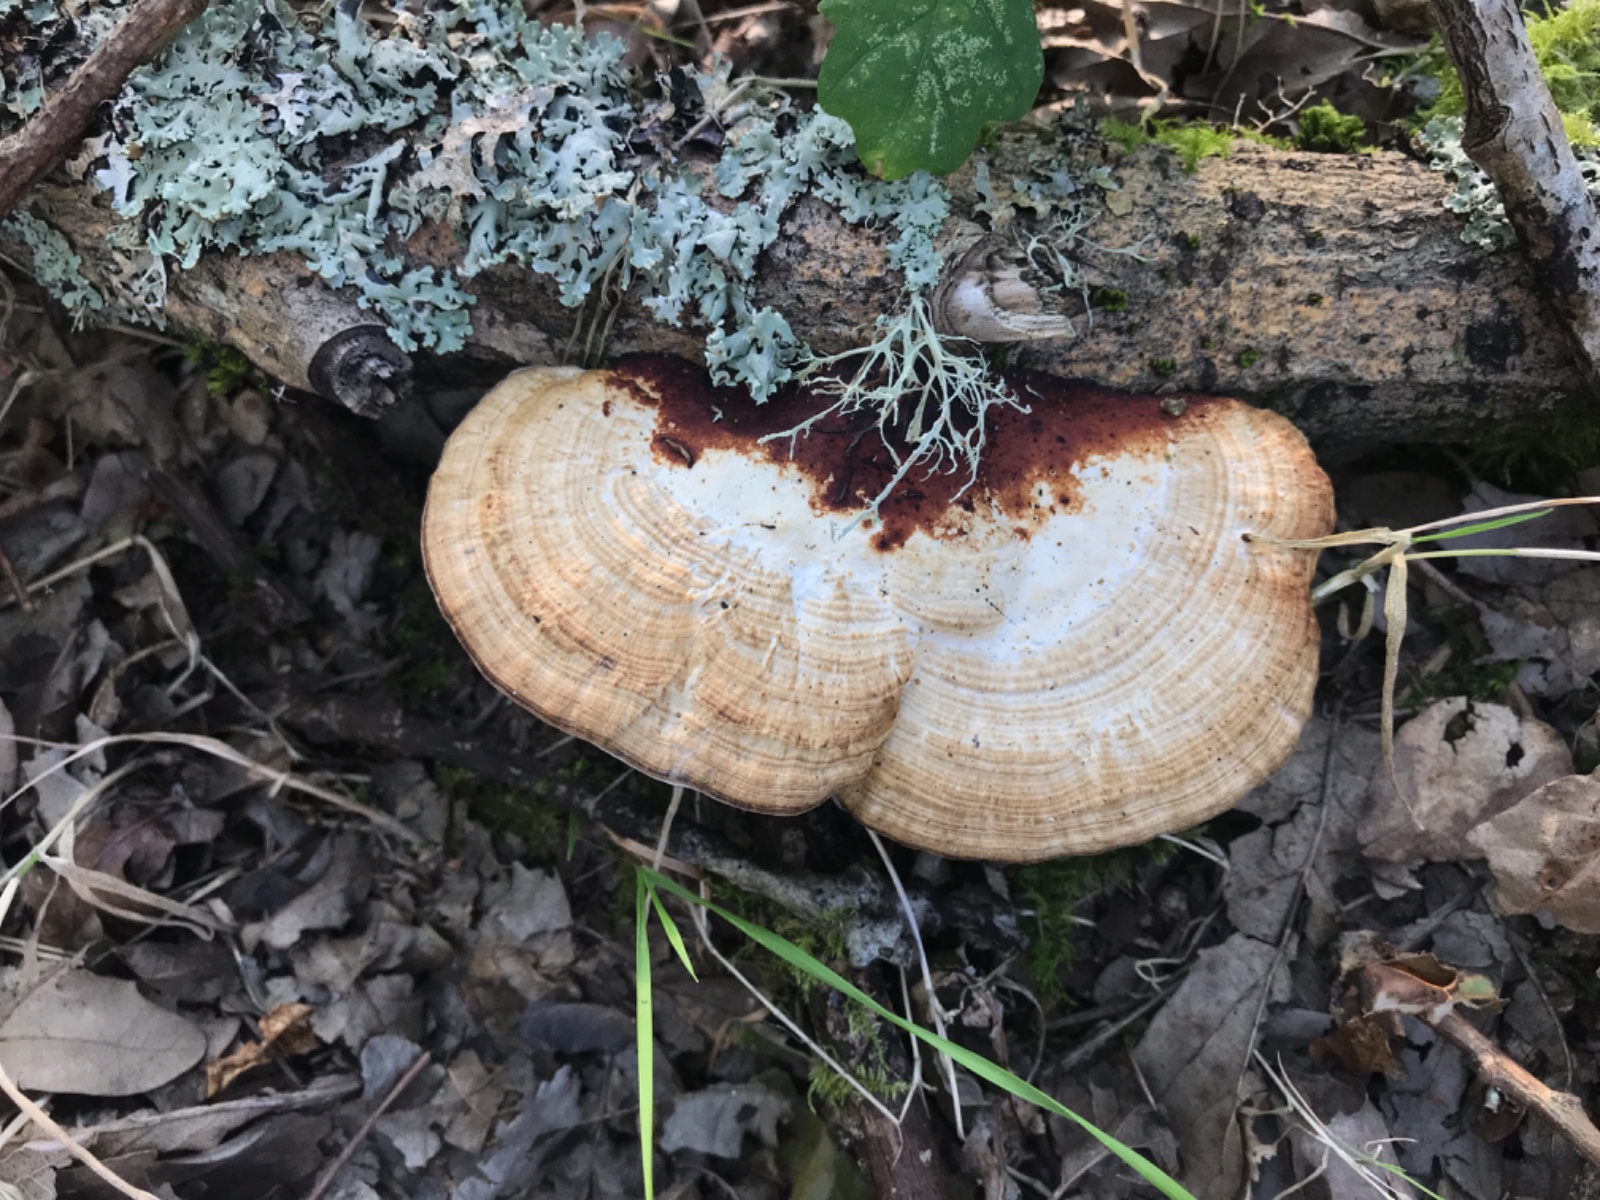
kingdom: Fungi
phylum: Basidiomycota
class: Agaricomycetes
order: Polyporales
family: Polyporaceae
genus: Daedaleopsis
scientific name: Daedaleopsis confragosa
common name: rødmende læderporesvamp
